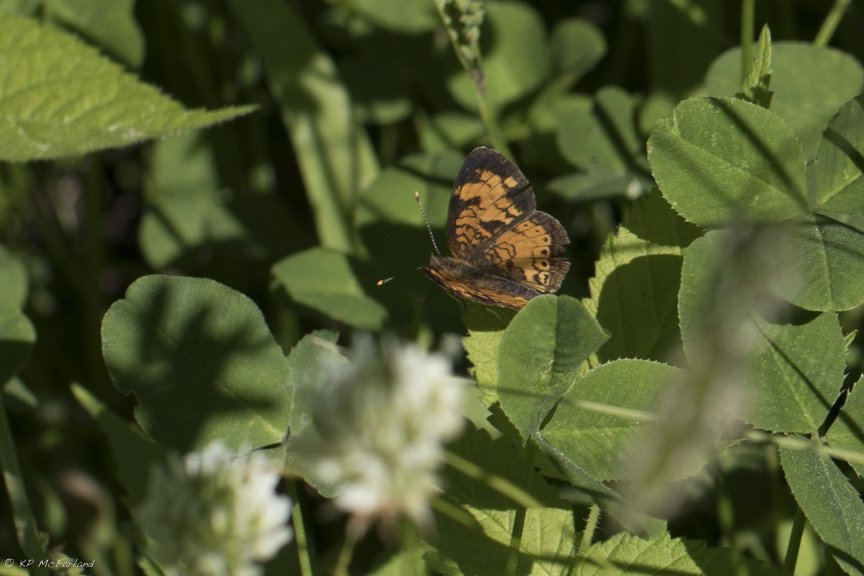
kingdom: Animalia
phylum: Arthropoda
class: Insecta
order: Lepidoptera
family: Nymphalidae
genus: Phyciodes
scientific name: Phyciodes tharos
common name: Northern Crescent
